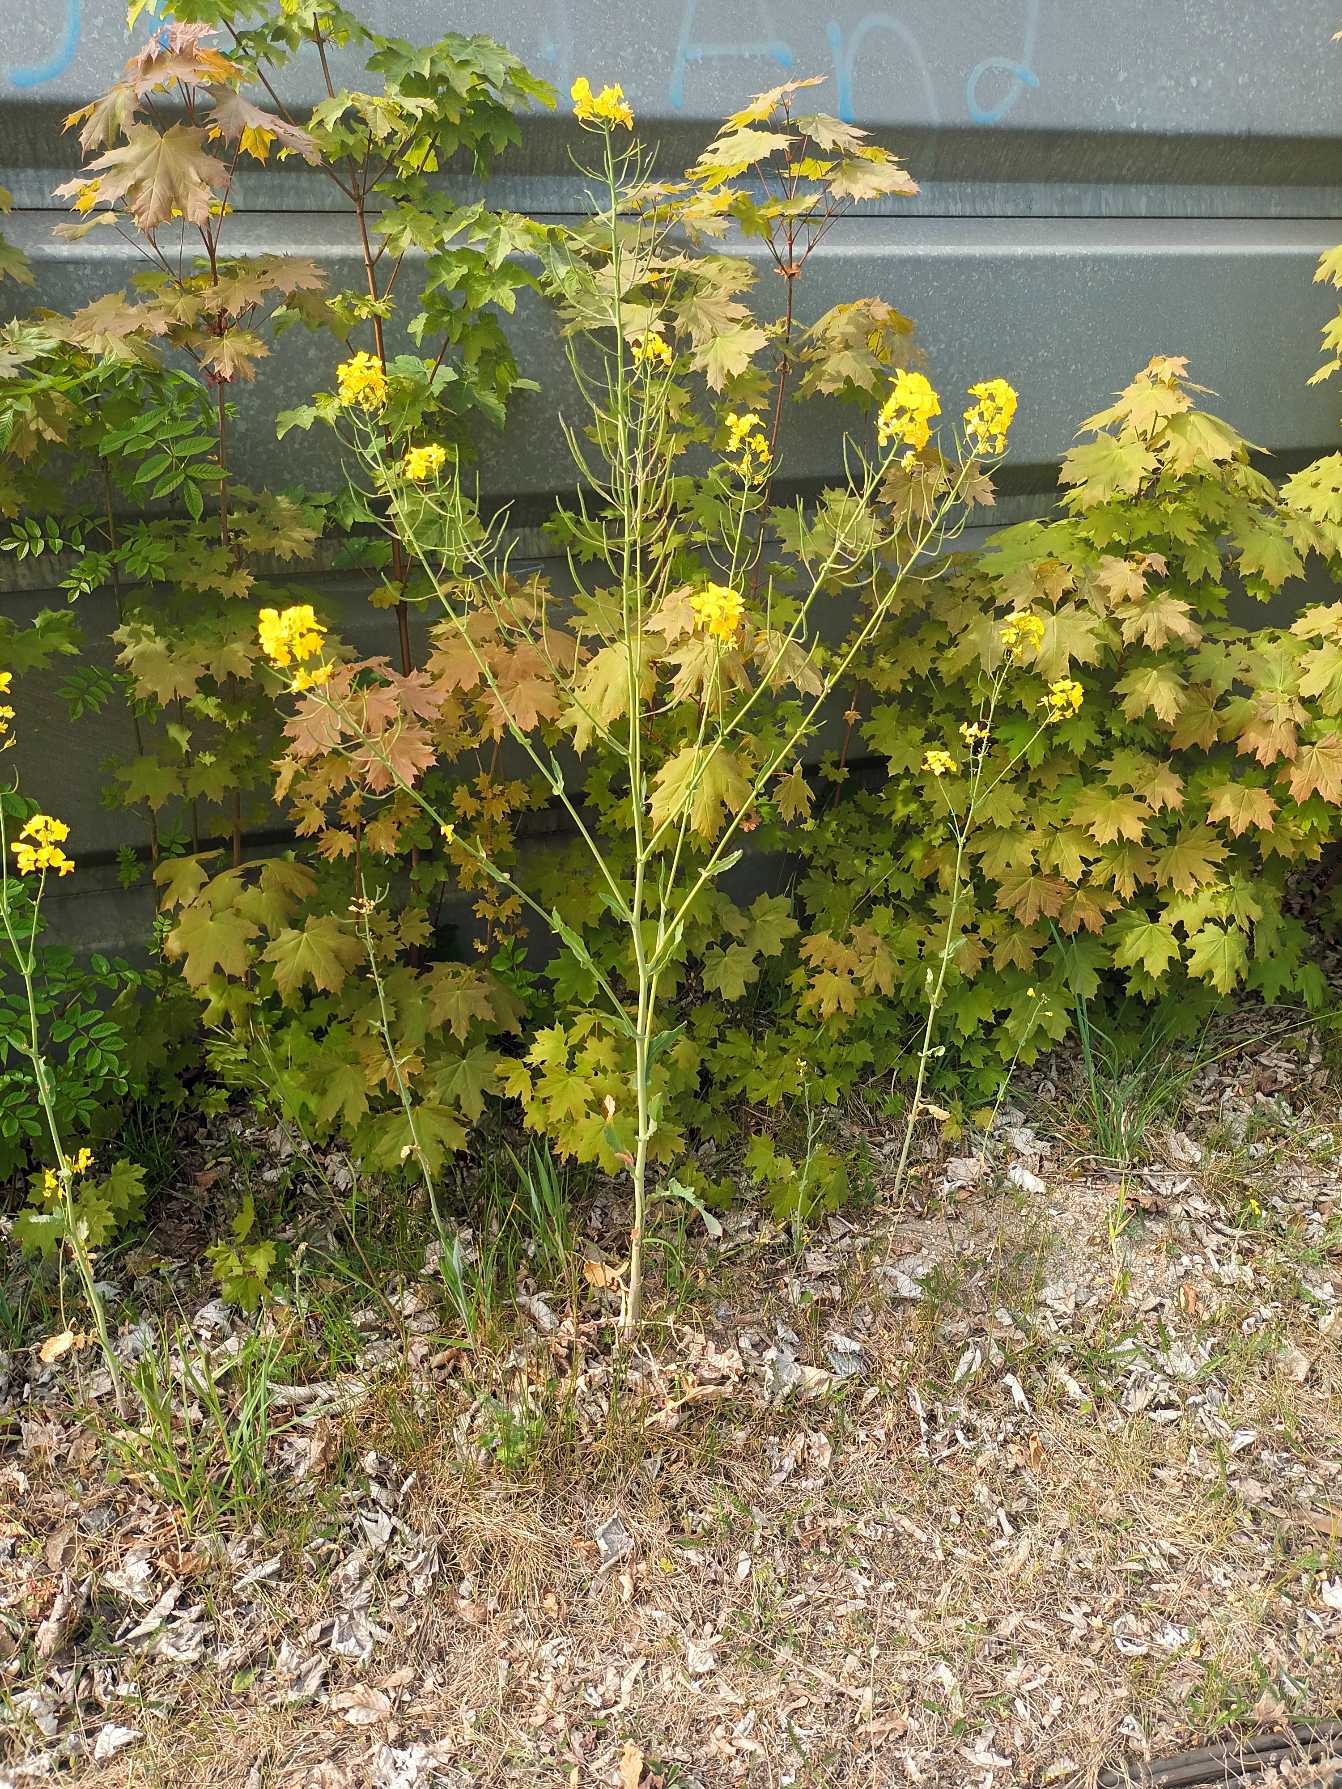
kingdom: Plantae
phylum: Tracheophyta
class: Magnoliopsida
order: Brassicales
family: Brassicaceae
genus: Brassica
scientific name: Brassica rapa
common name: Ager-kål
